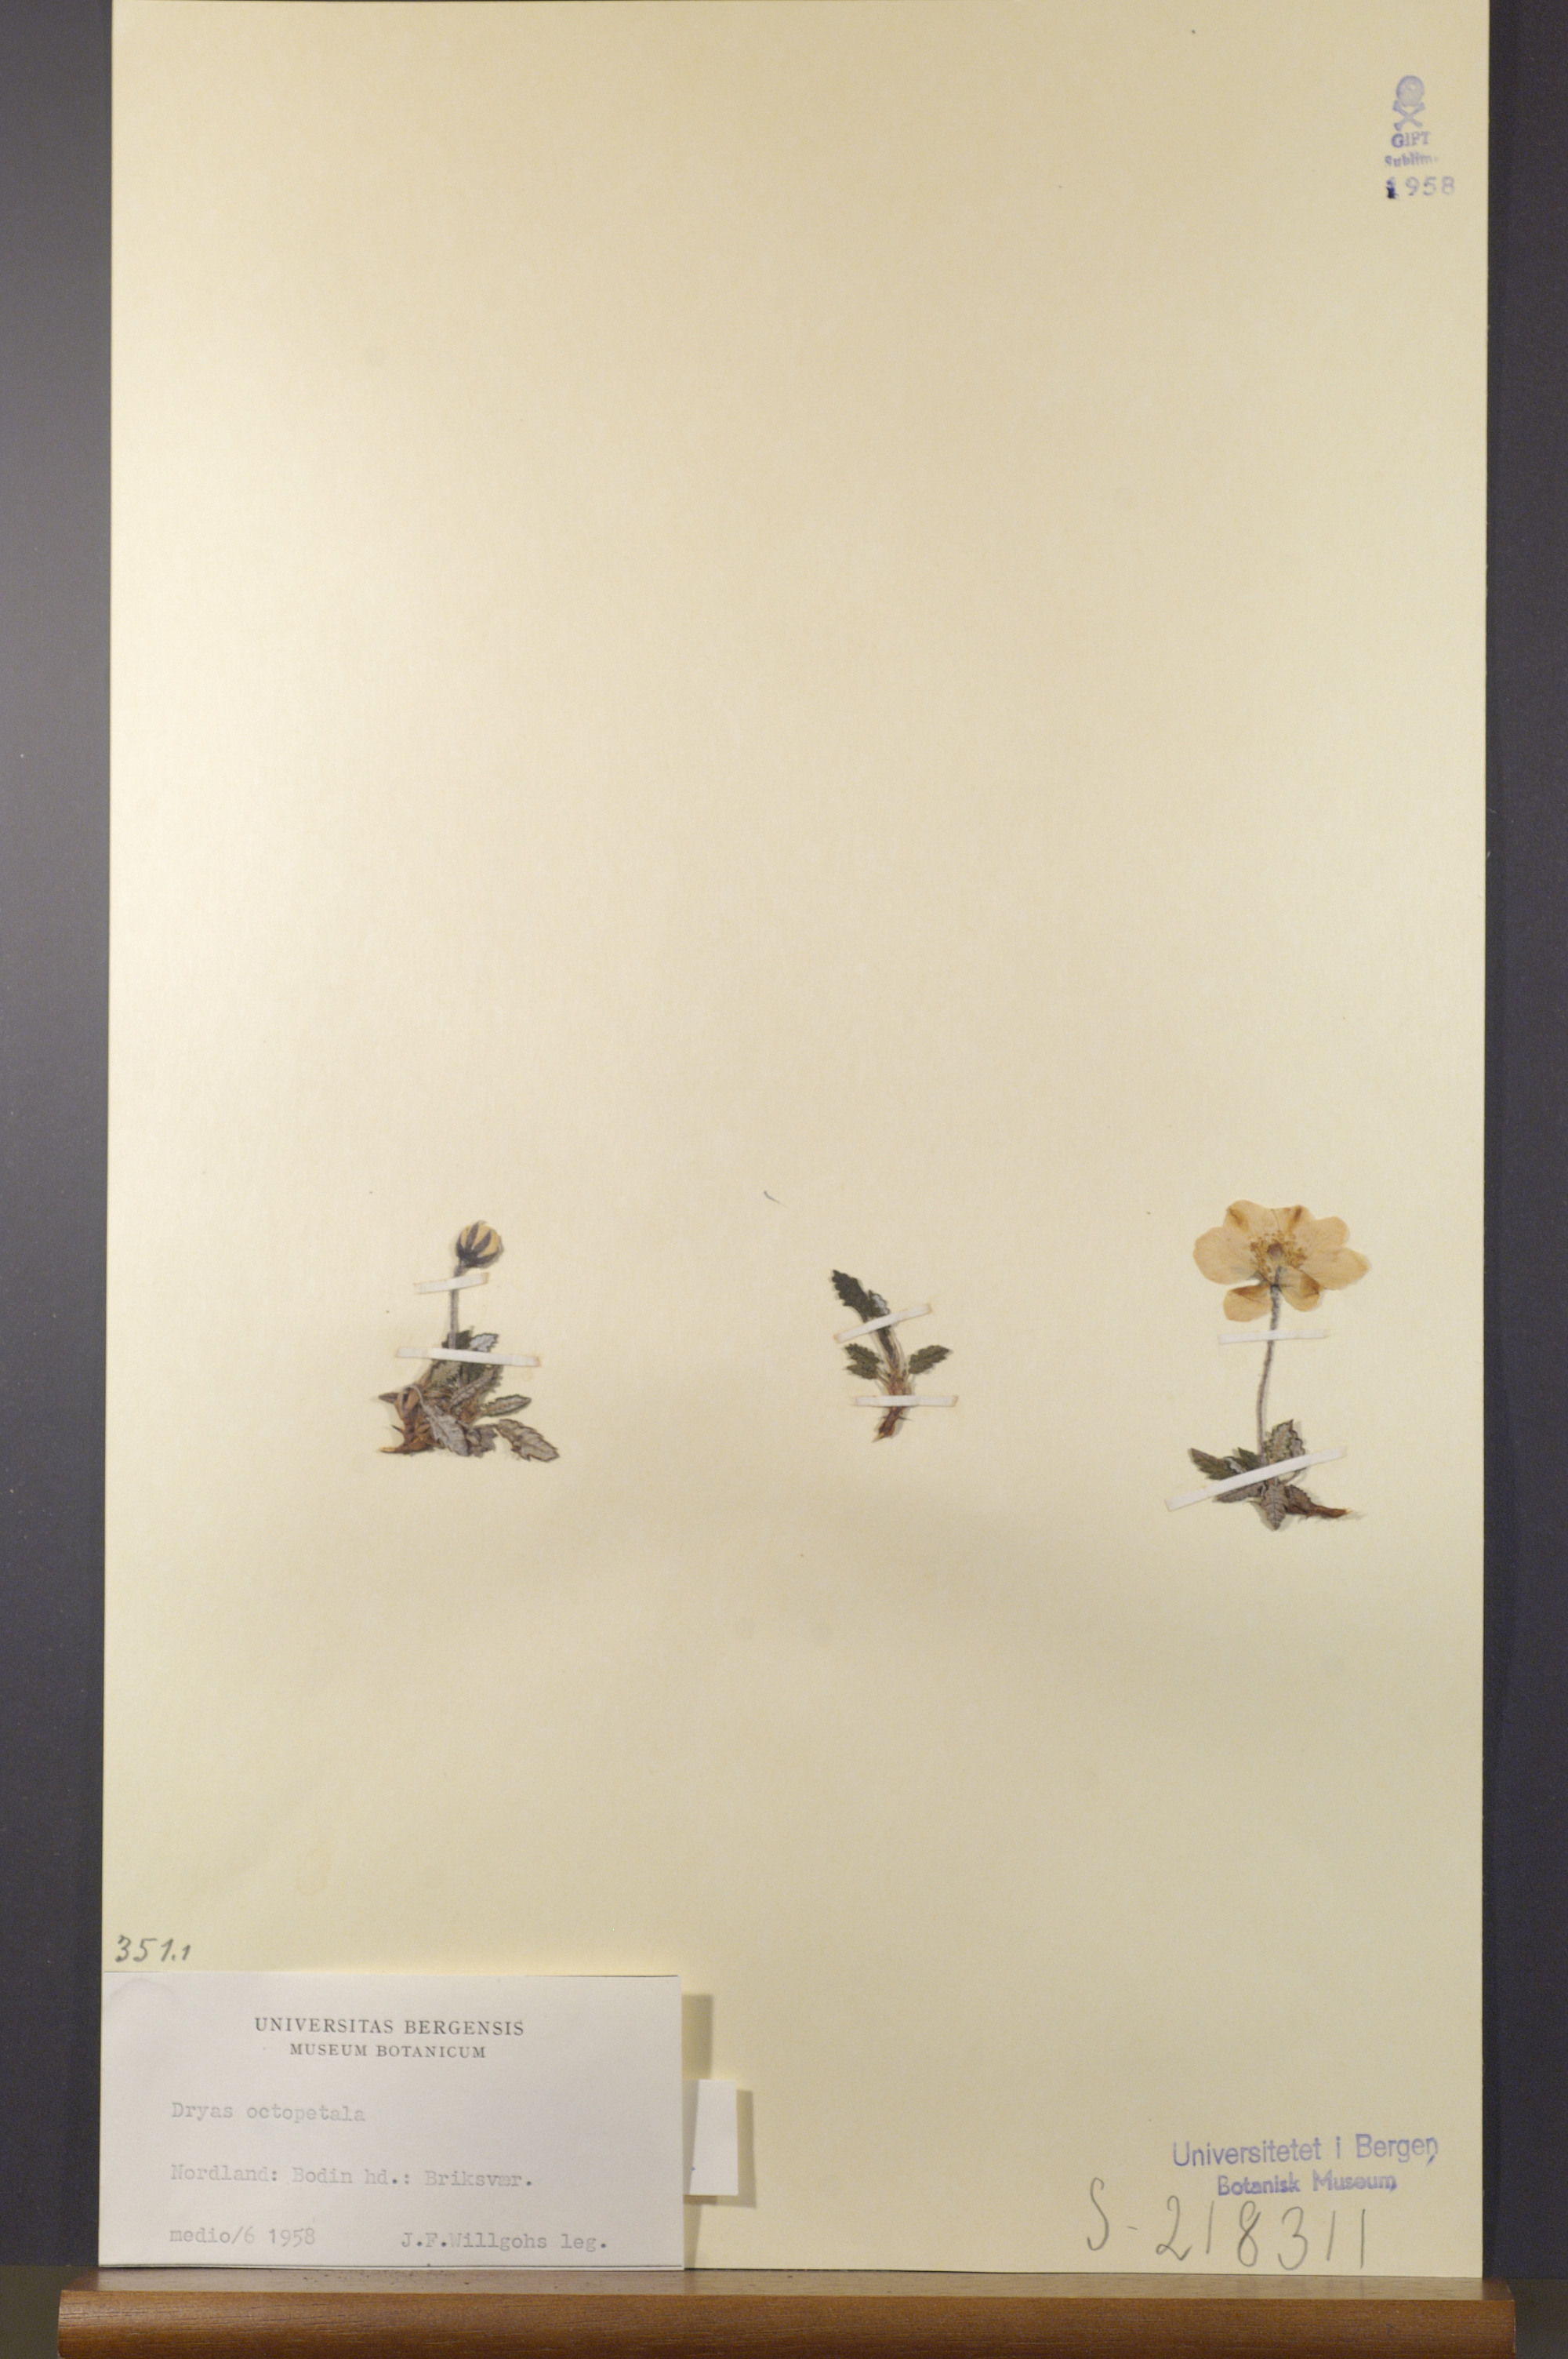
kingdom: Plantae
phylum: Tracheophyta
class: Magnoliopsida
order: Rosales
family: Rosaceae
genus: Dryas
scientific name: Dryas octopetala
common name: Eight-petal mountain-avens
